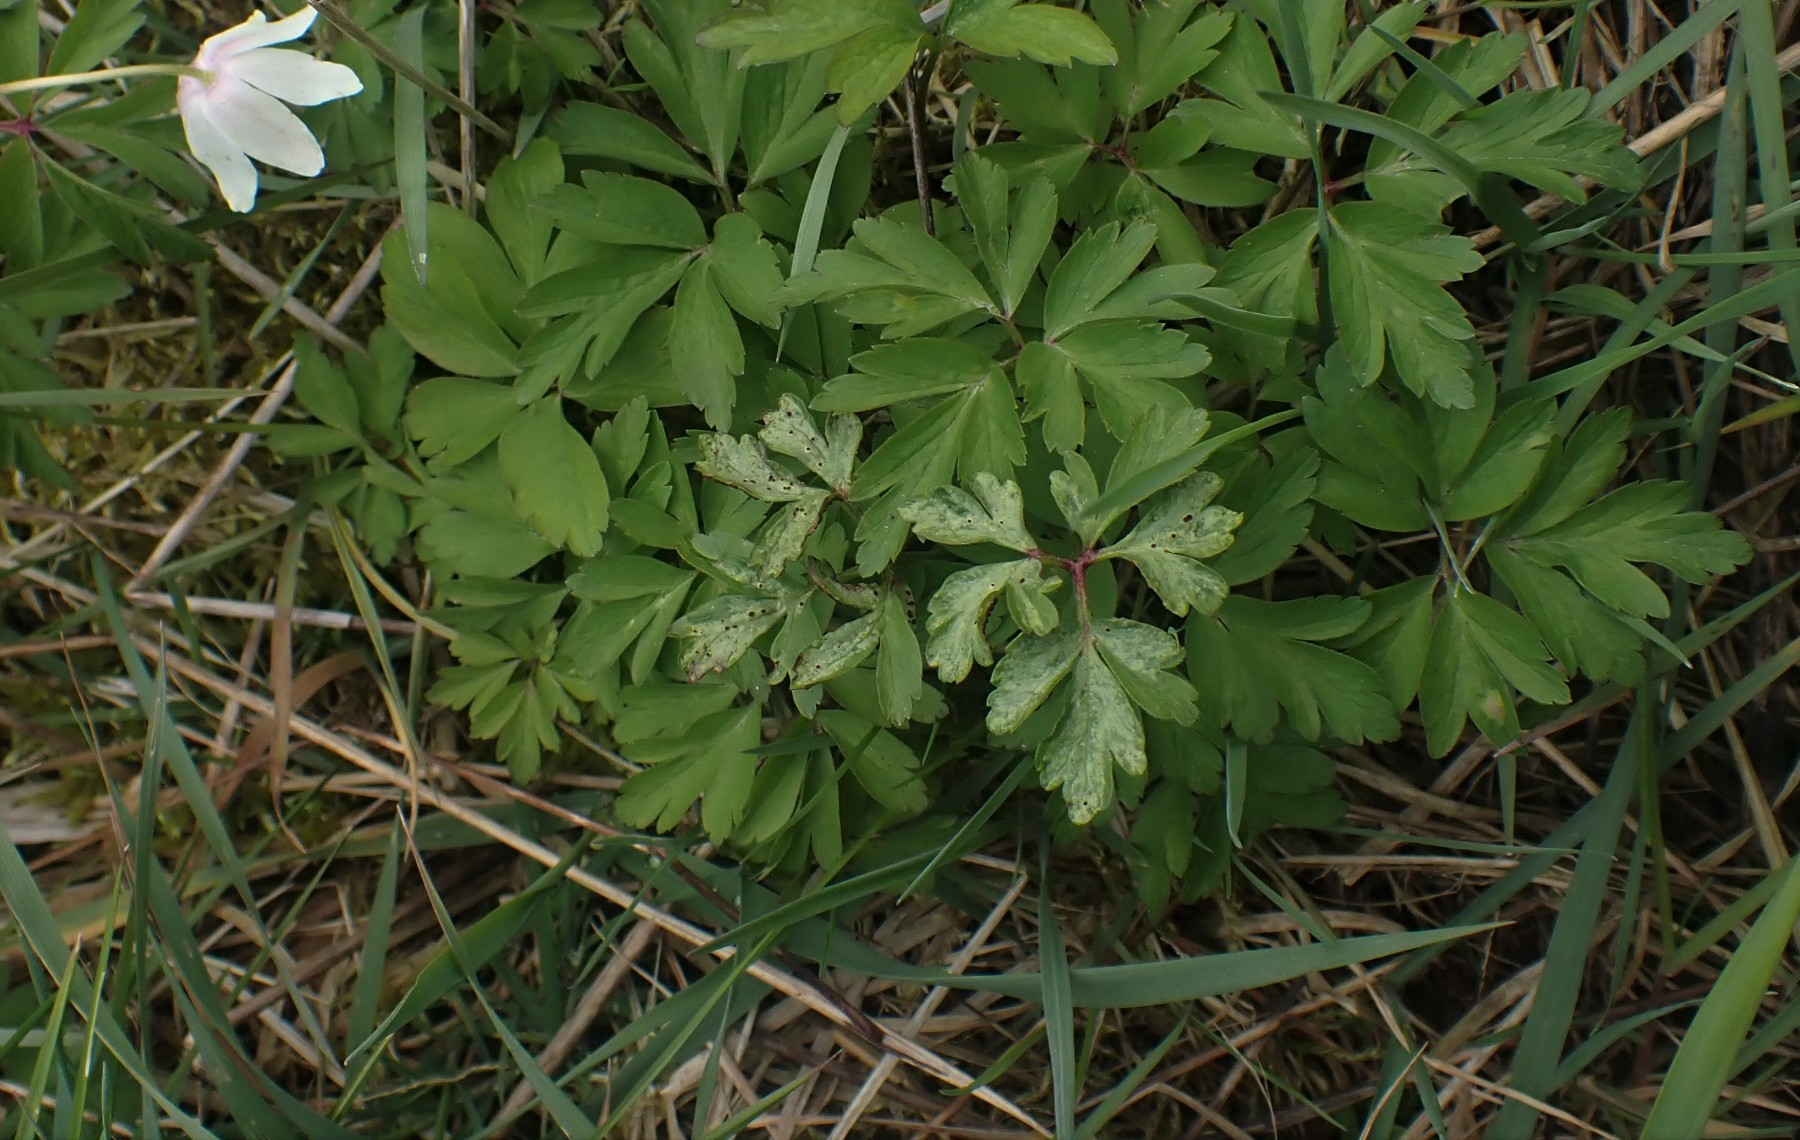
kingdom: Fungi
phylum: Basidiomycota
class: Pucciniomycetes
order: Pucciniales
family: Tranzscheliaceae
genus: Tranzschelia
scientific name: Tranzschelia anemones
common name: anemone-knæksporerust
